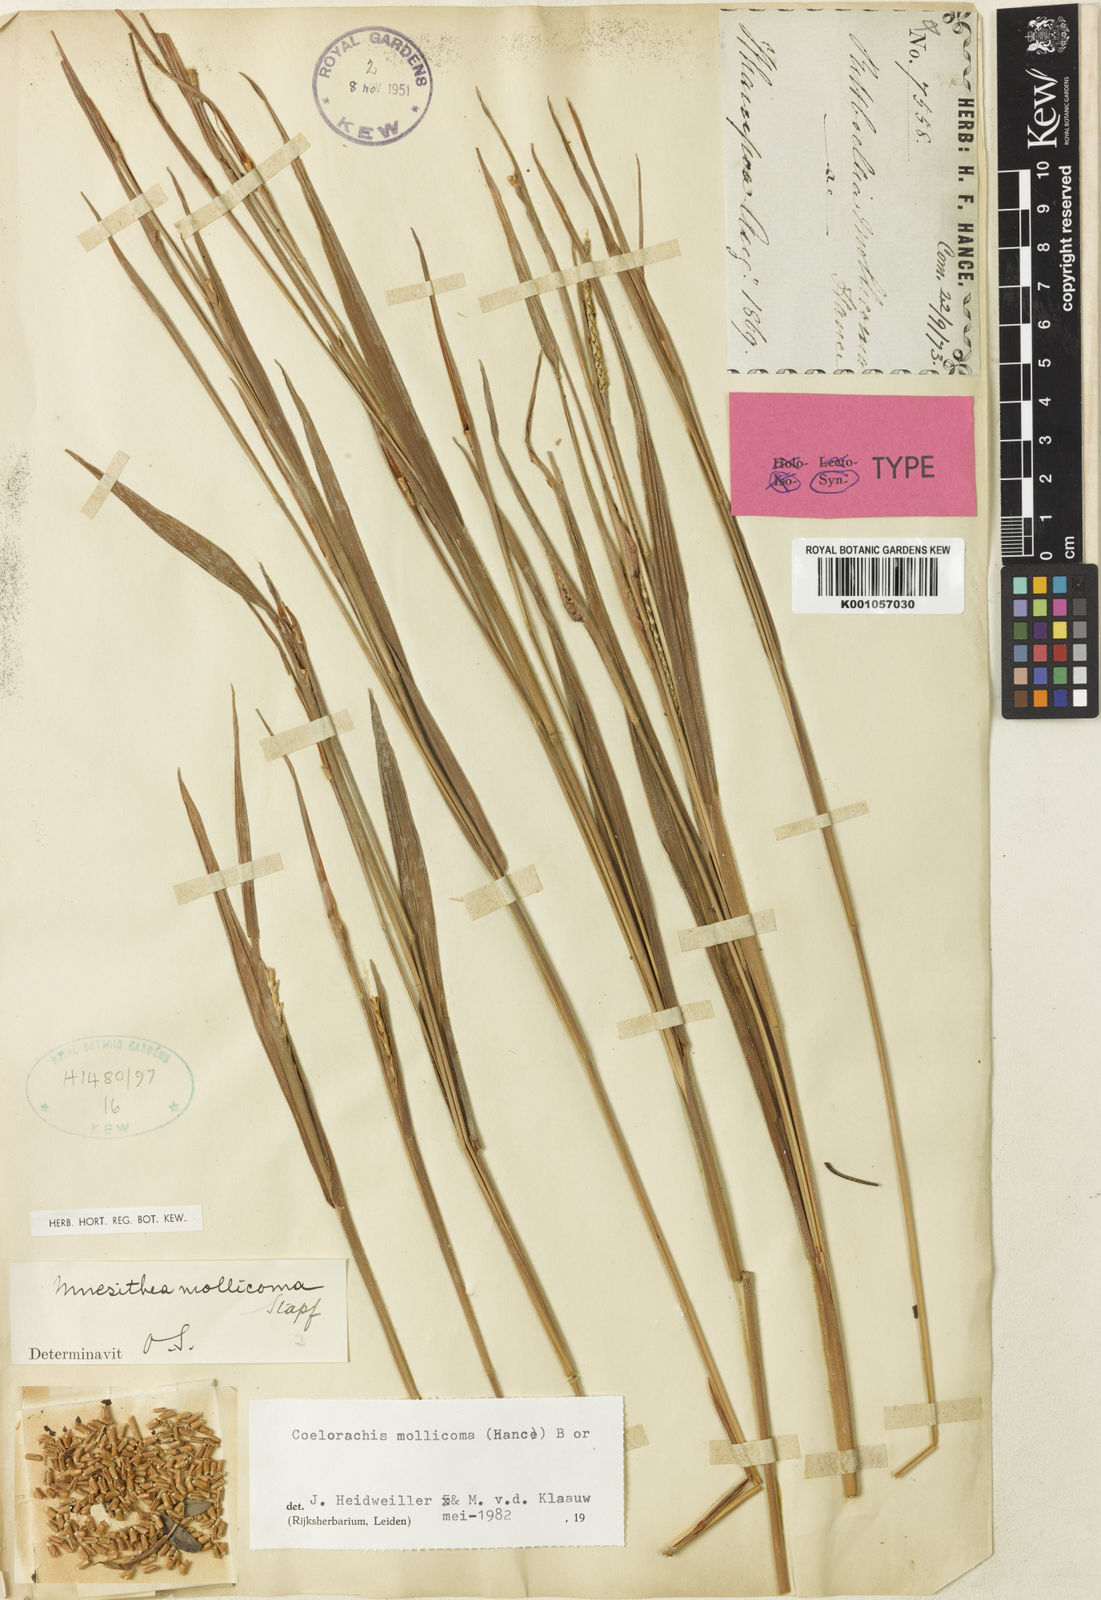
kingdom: Plantae
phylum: Tracheophyta
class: Liliopsida
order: Poales
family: Poaceae
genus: Mnesithea
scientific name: Mnesithea mollicoma
